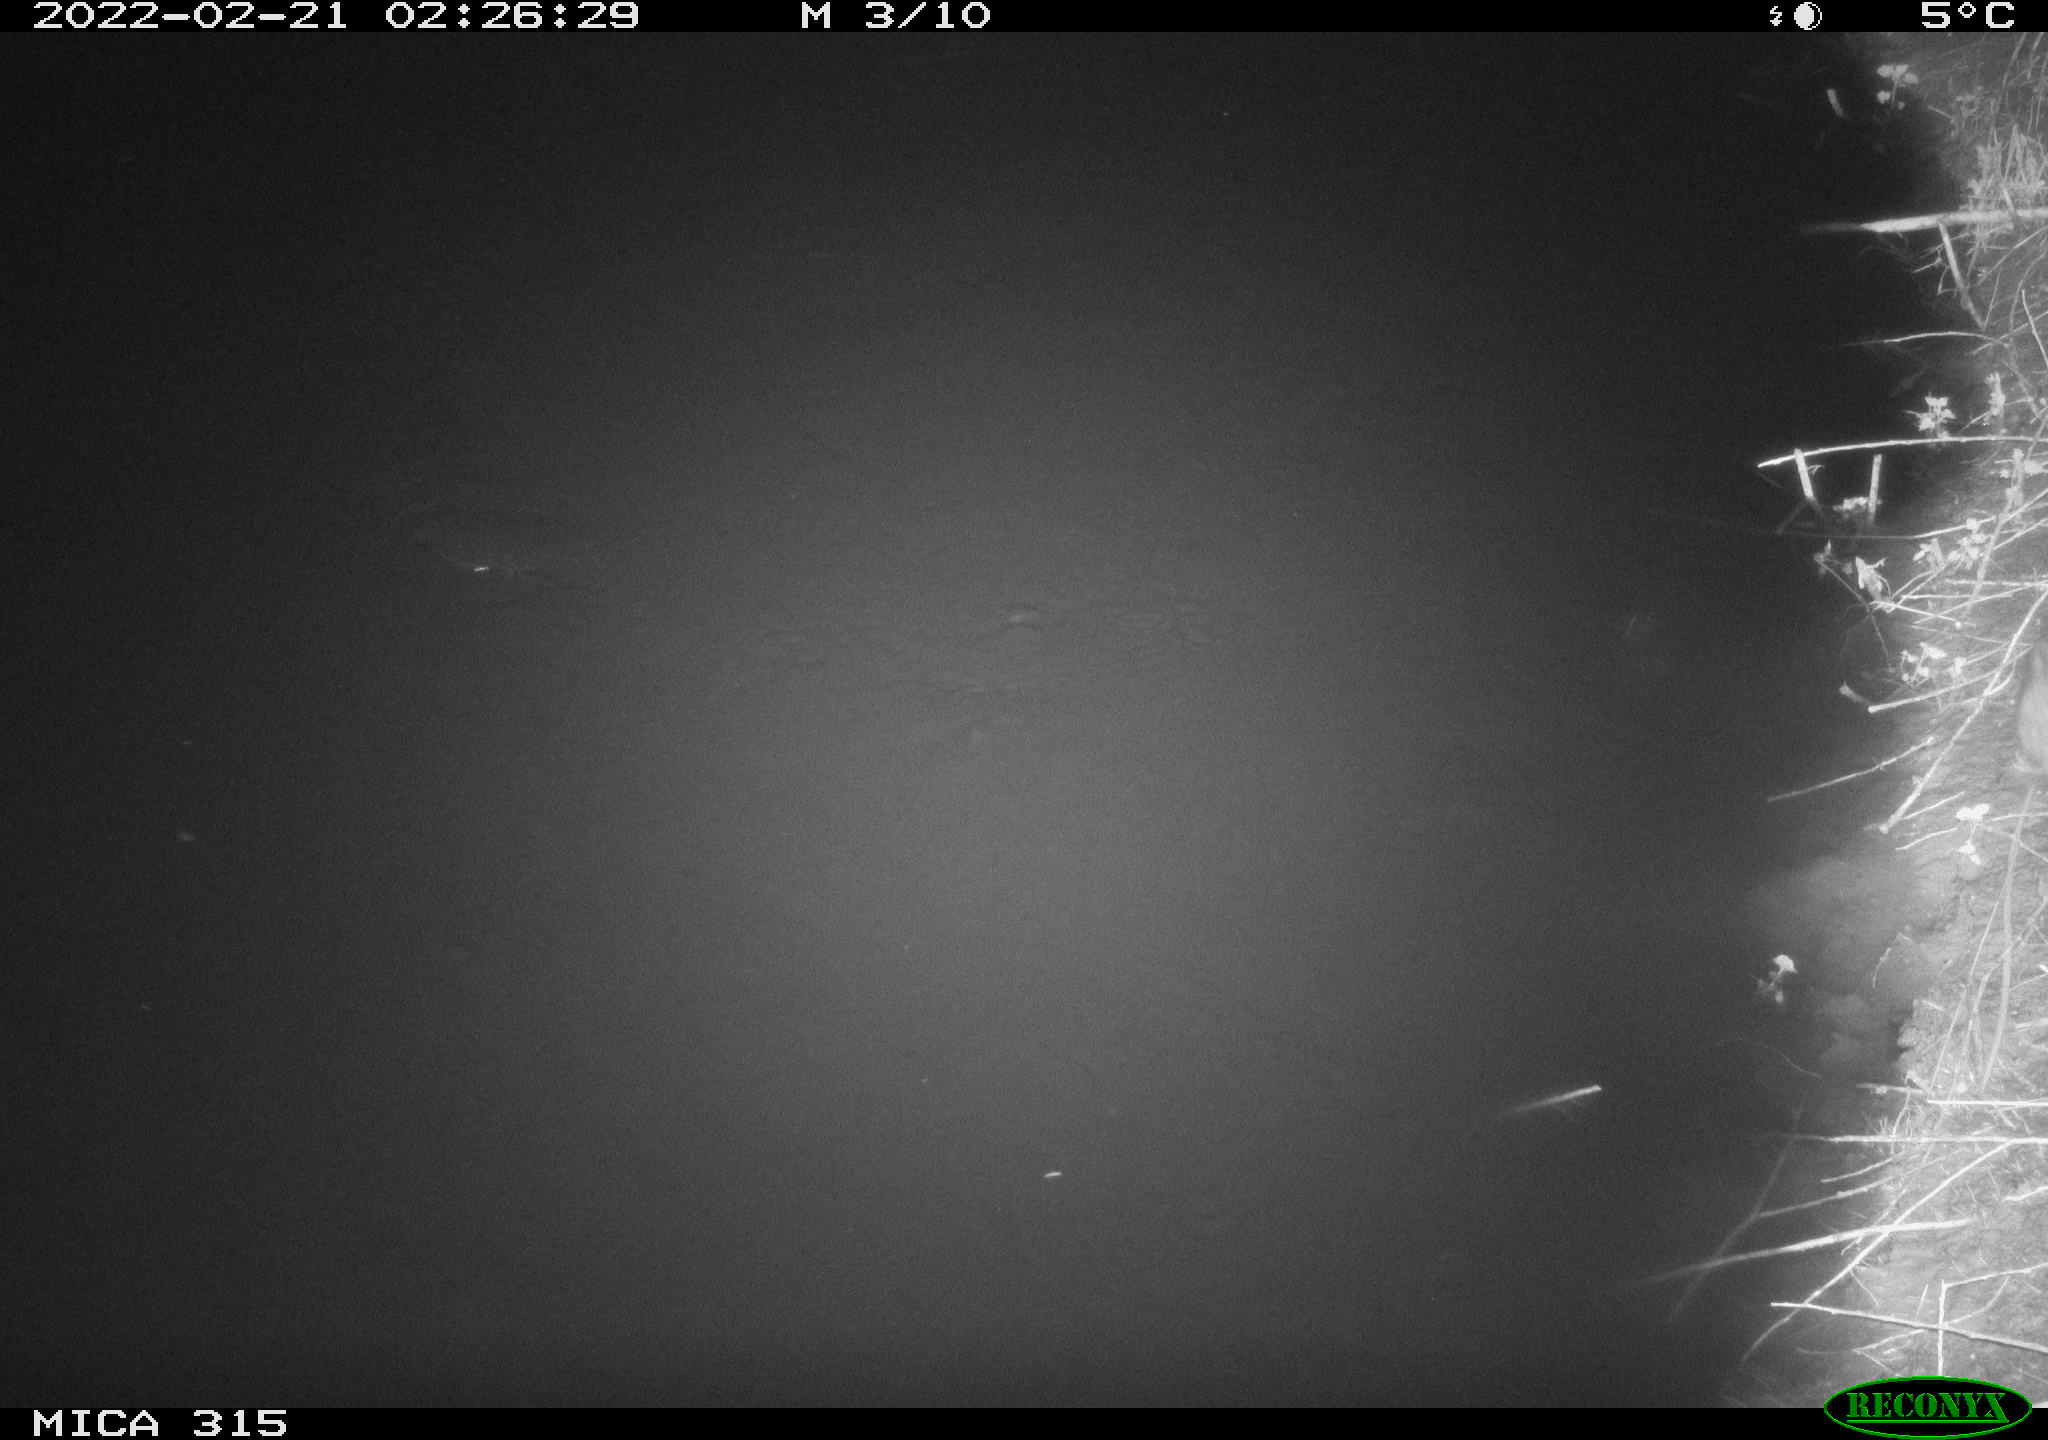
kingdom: Animalia
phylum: Chordata
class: Mammalia
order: Rodentia
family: Muridae
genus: Rattus
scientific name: Rattus norvegicus
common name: Brown rat
